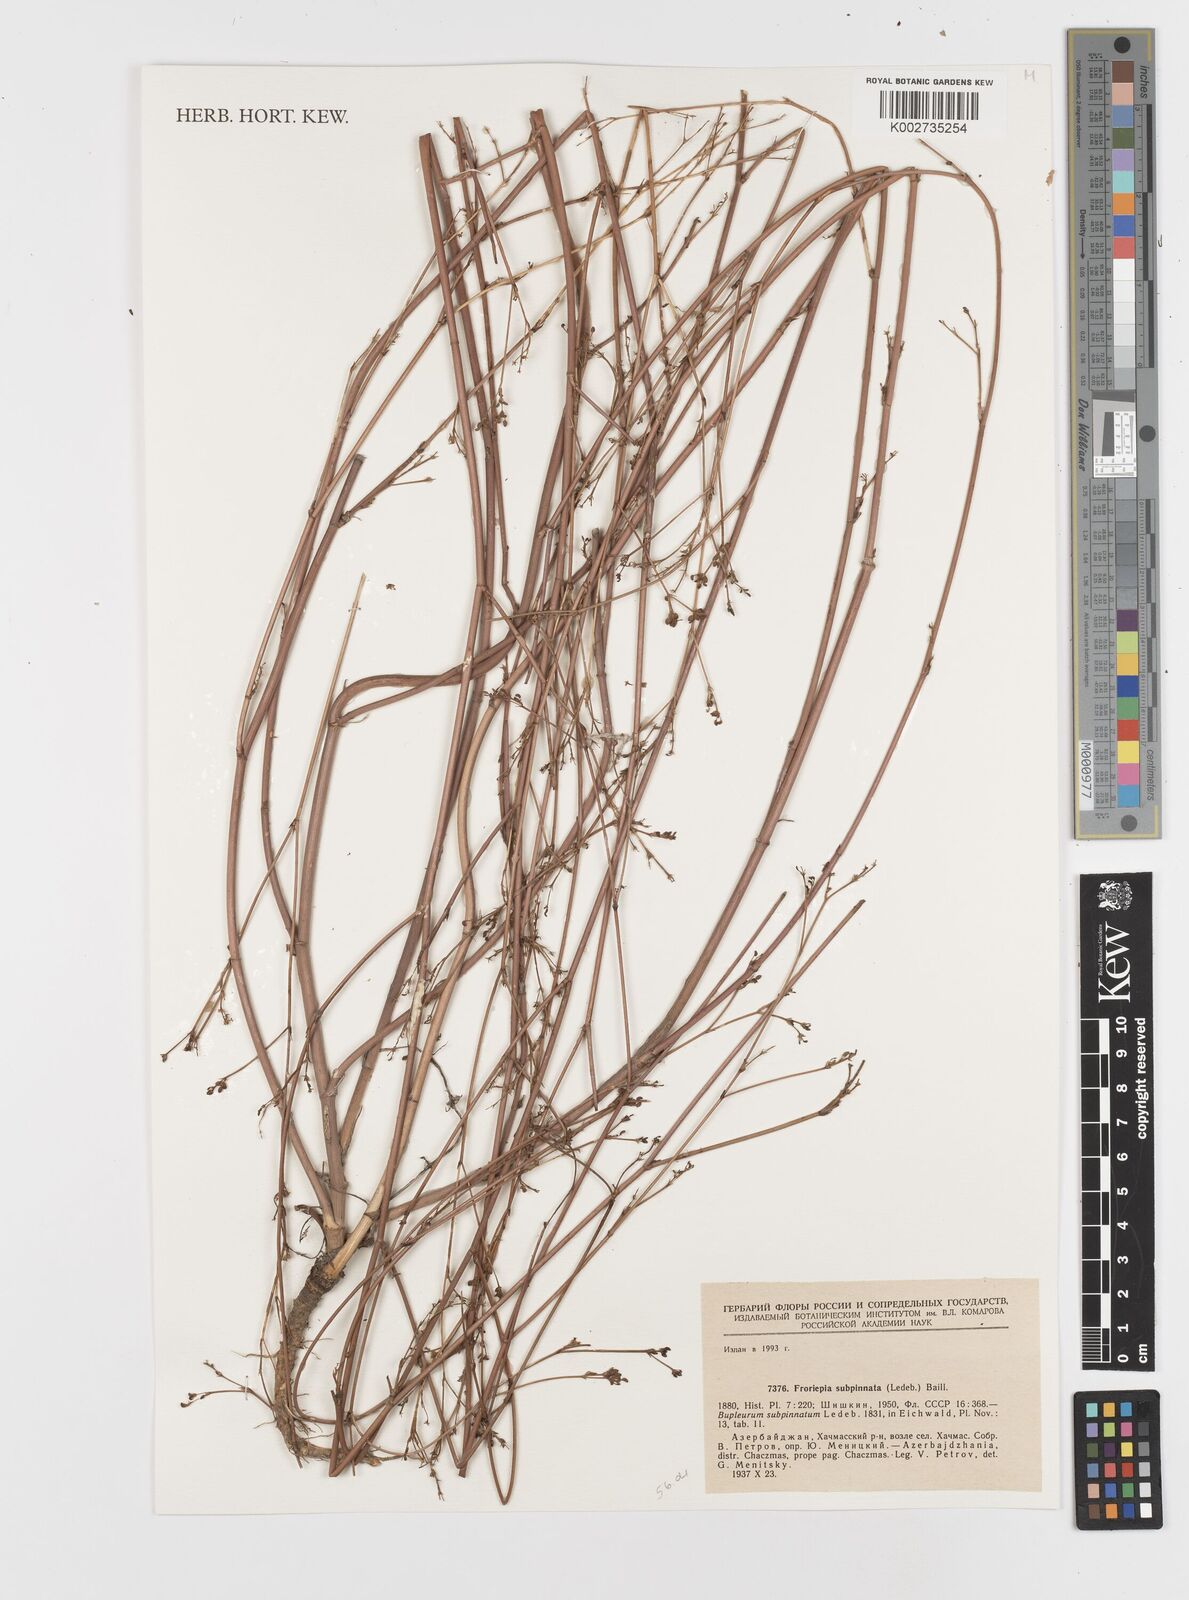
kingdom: Plantae
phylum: Tracheophyta
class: Magnoliopsida
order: Apiales
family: Apiaceae
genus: Froriepia
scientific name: Froriepia subpinnata
